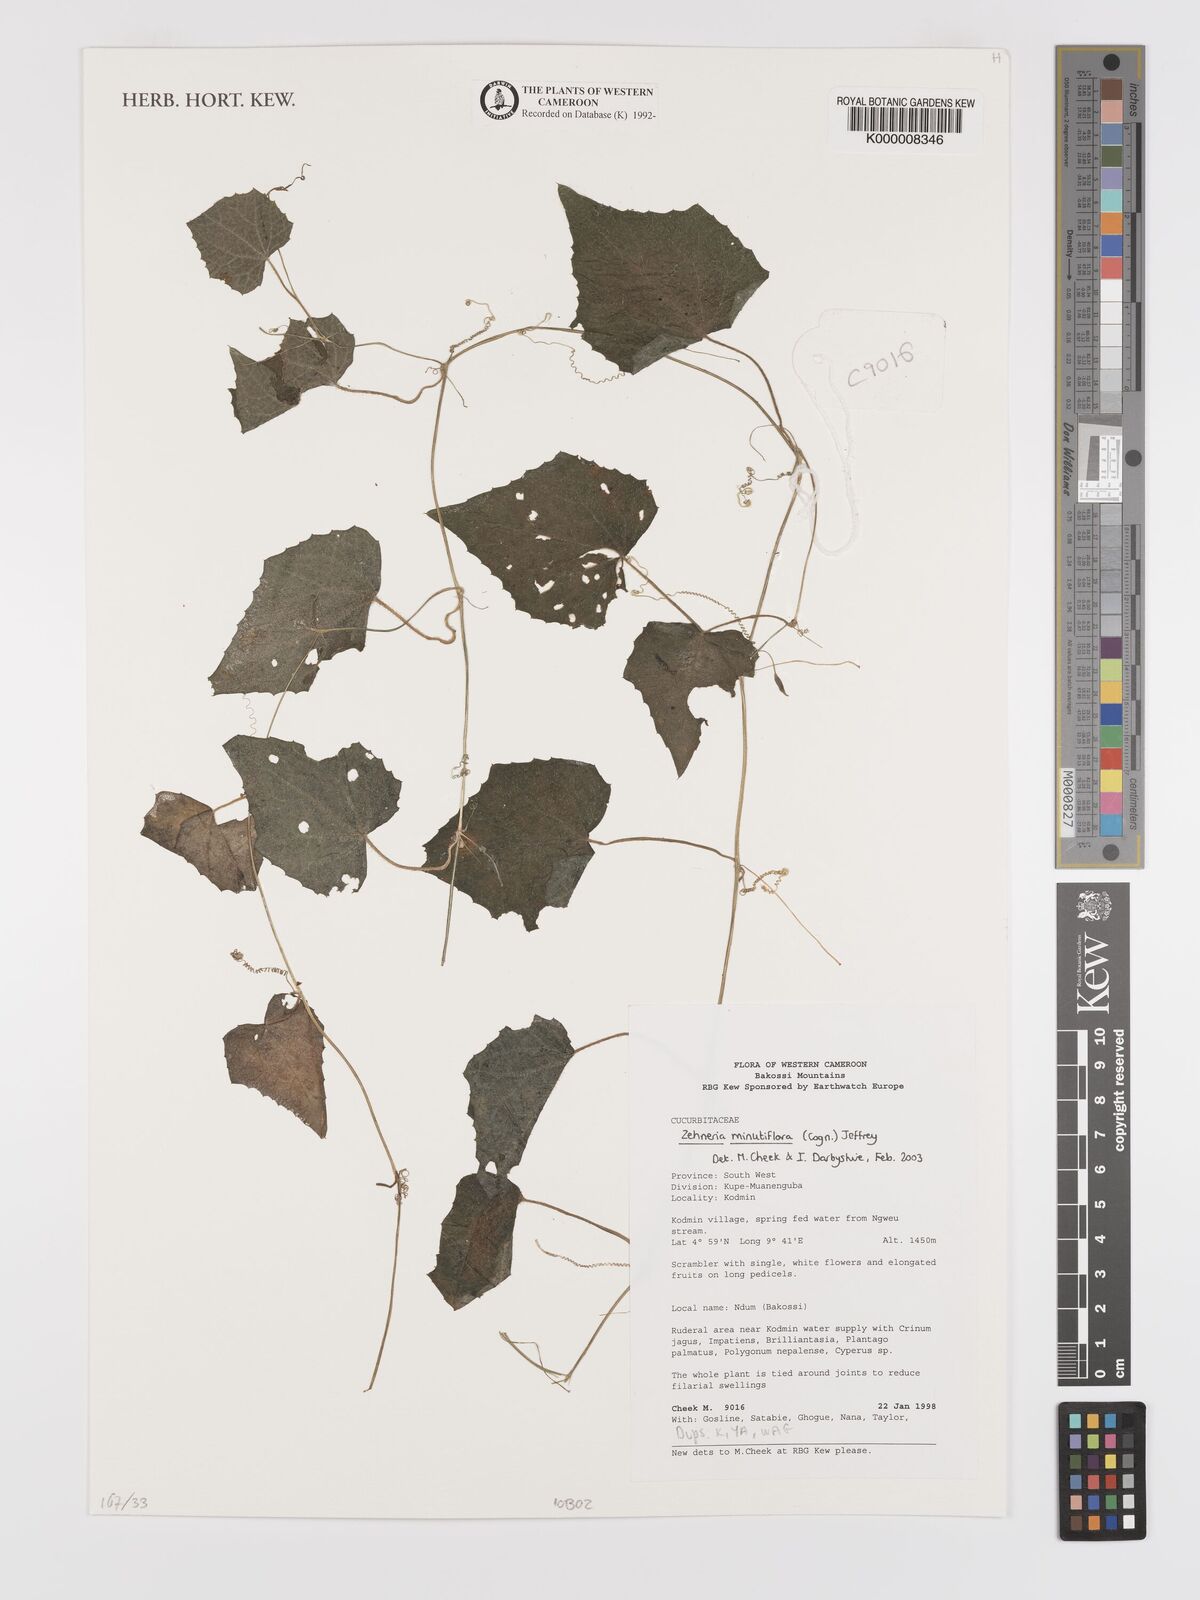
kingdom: Plantae
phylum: Tracheophyta
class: Magnoliopsida
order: Cucurbitales
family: Cucurbitaceae
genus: Zehneria
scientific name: Zehneria minutiflora
